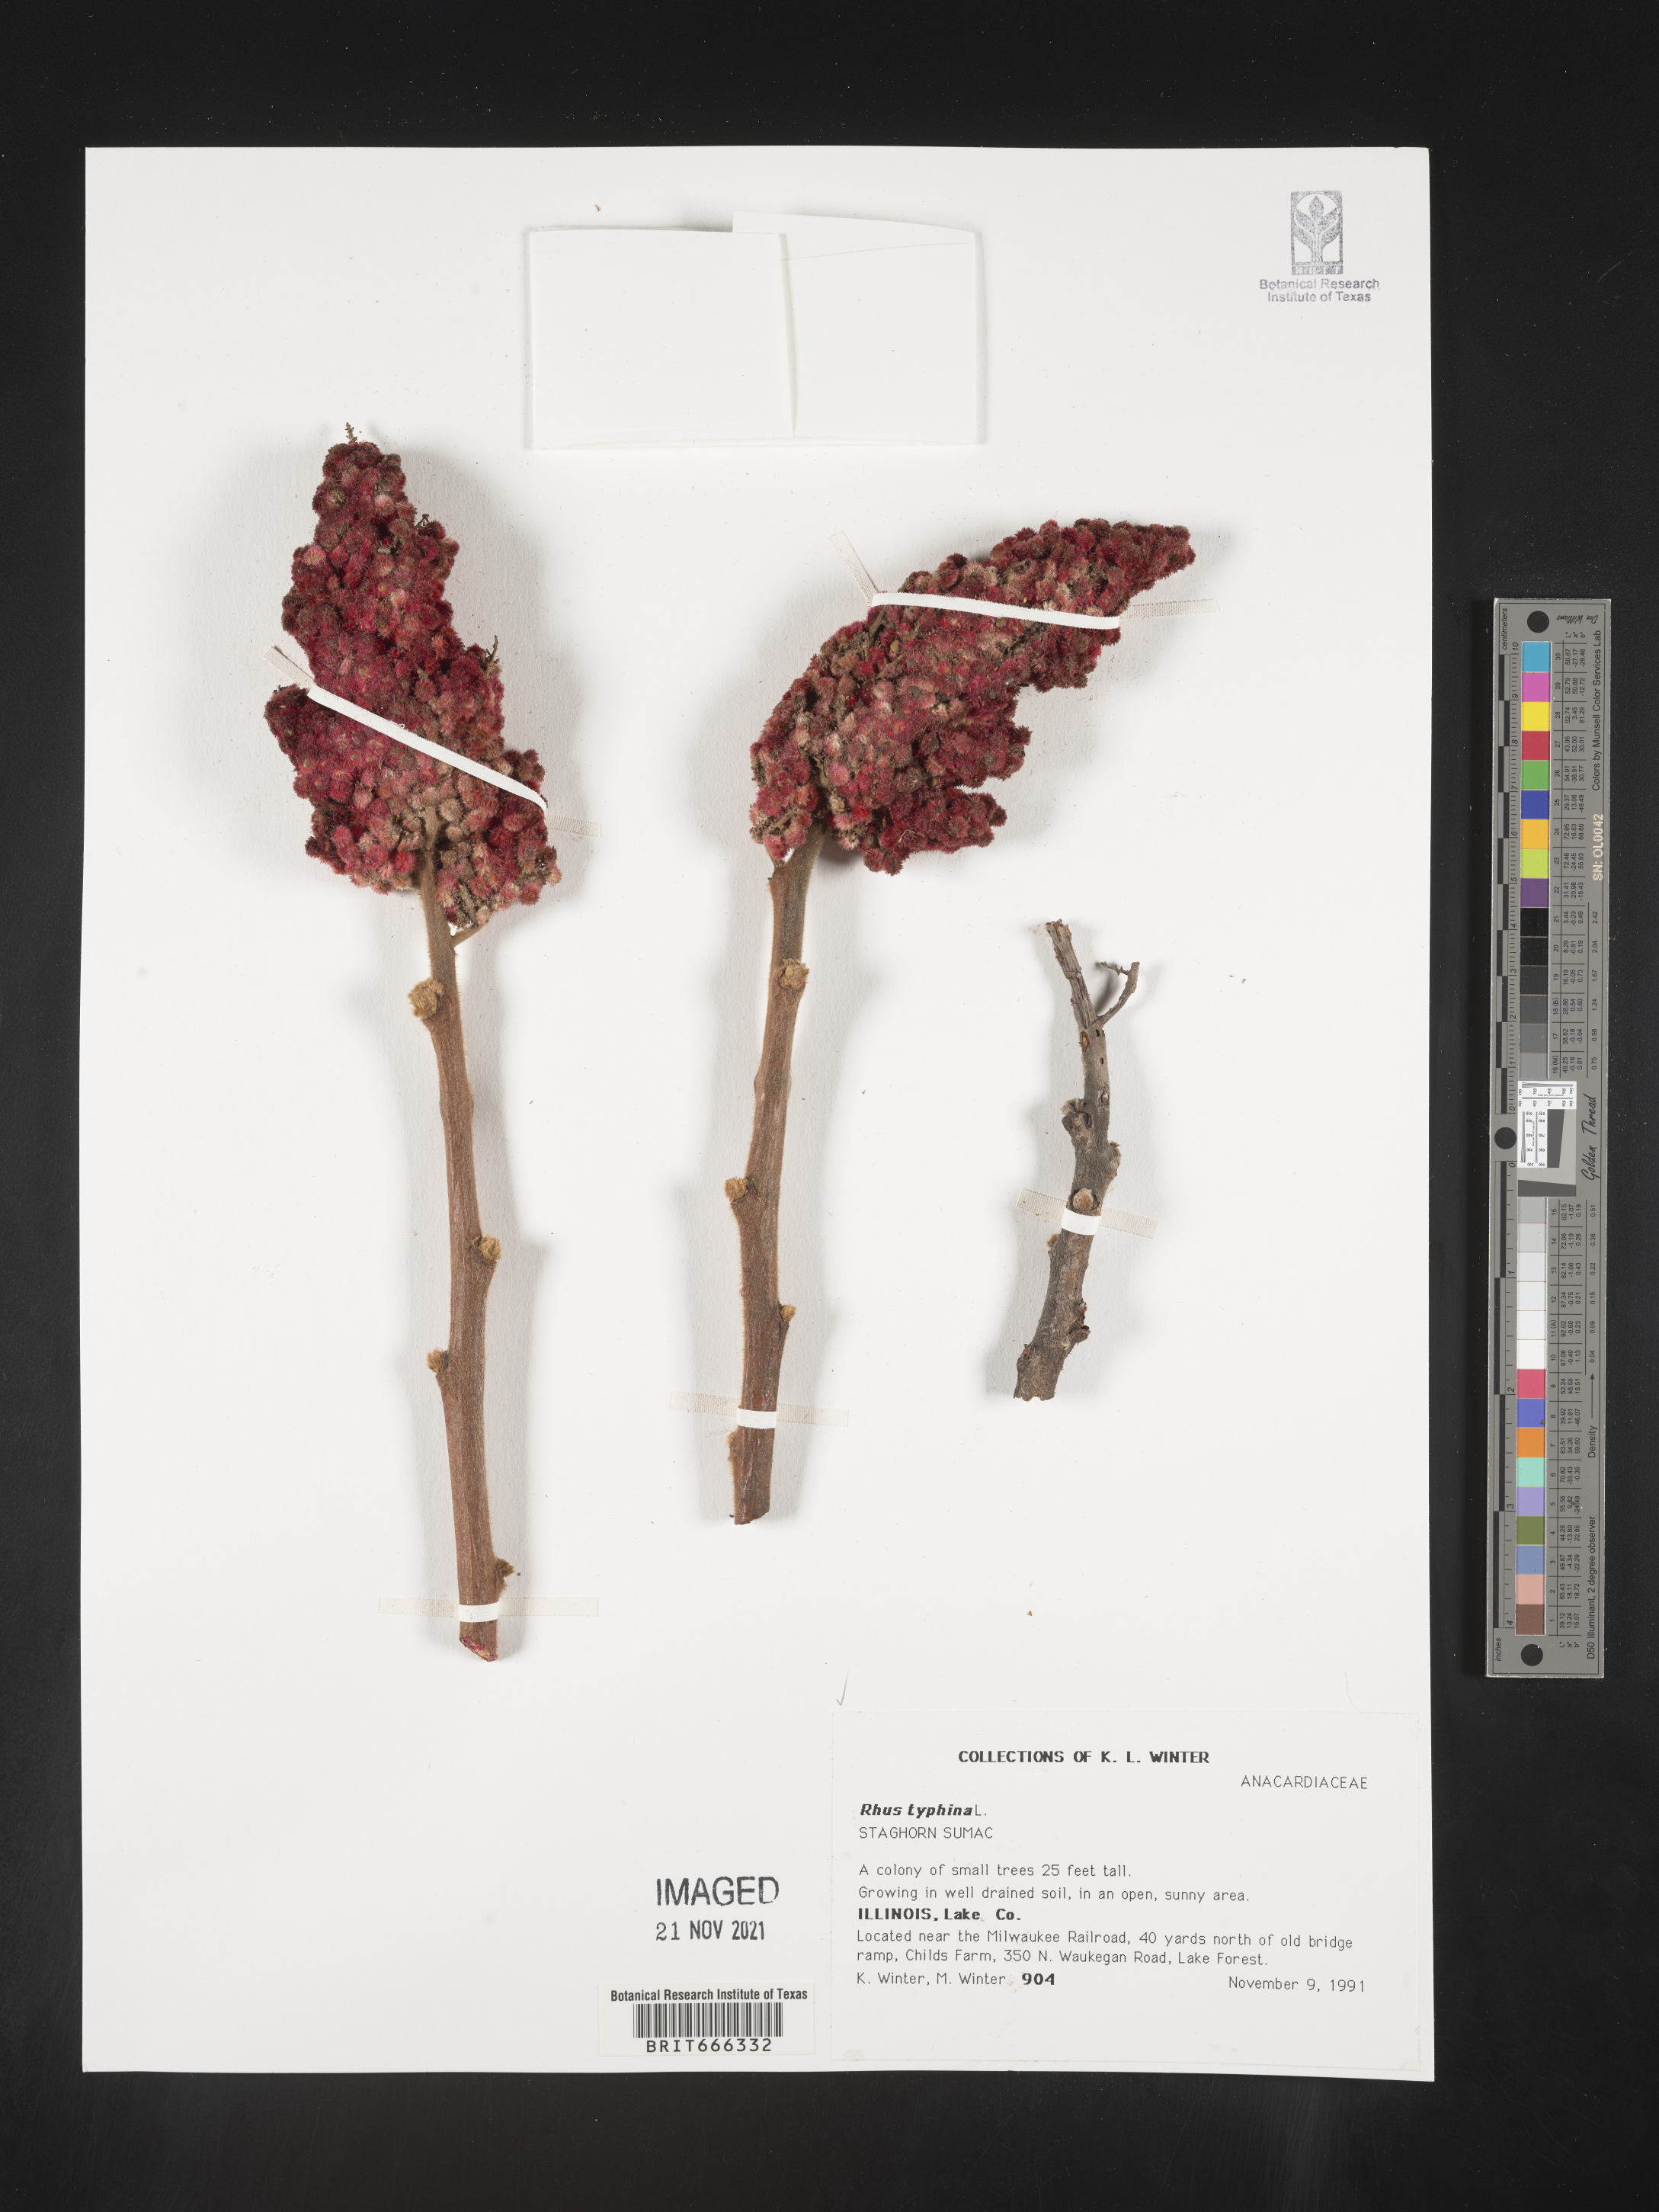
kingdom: Plantae
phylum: Tracheophyta
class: Magnoliopsida
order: Sapindales
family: Anacardiaceae
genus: Rhus
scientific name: Rhus typhina
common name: Staghorn sumac
